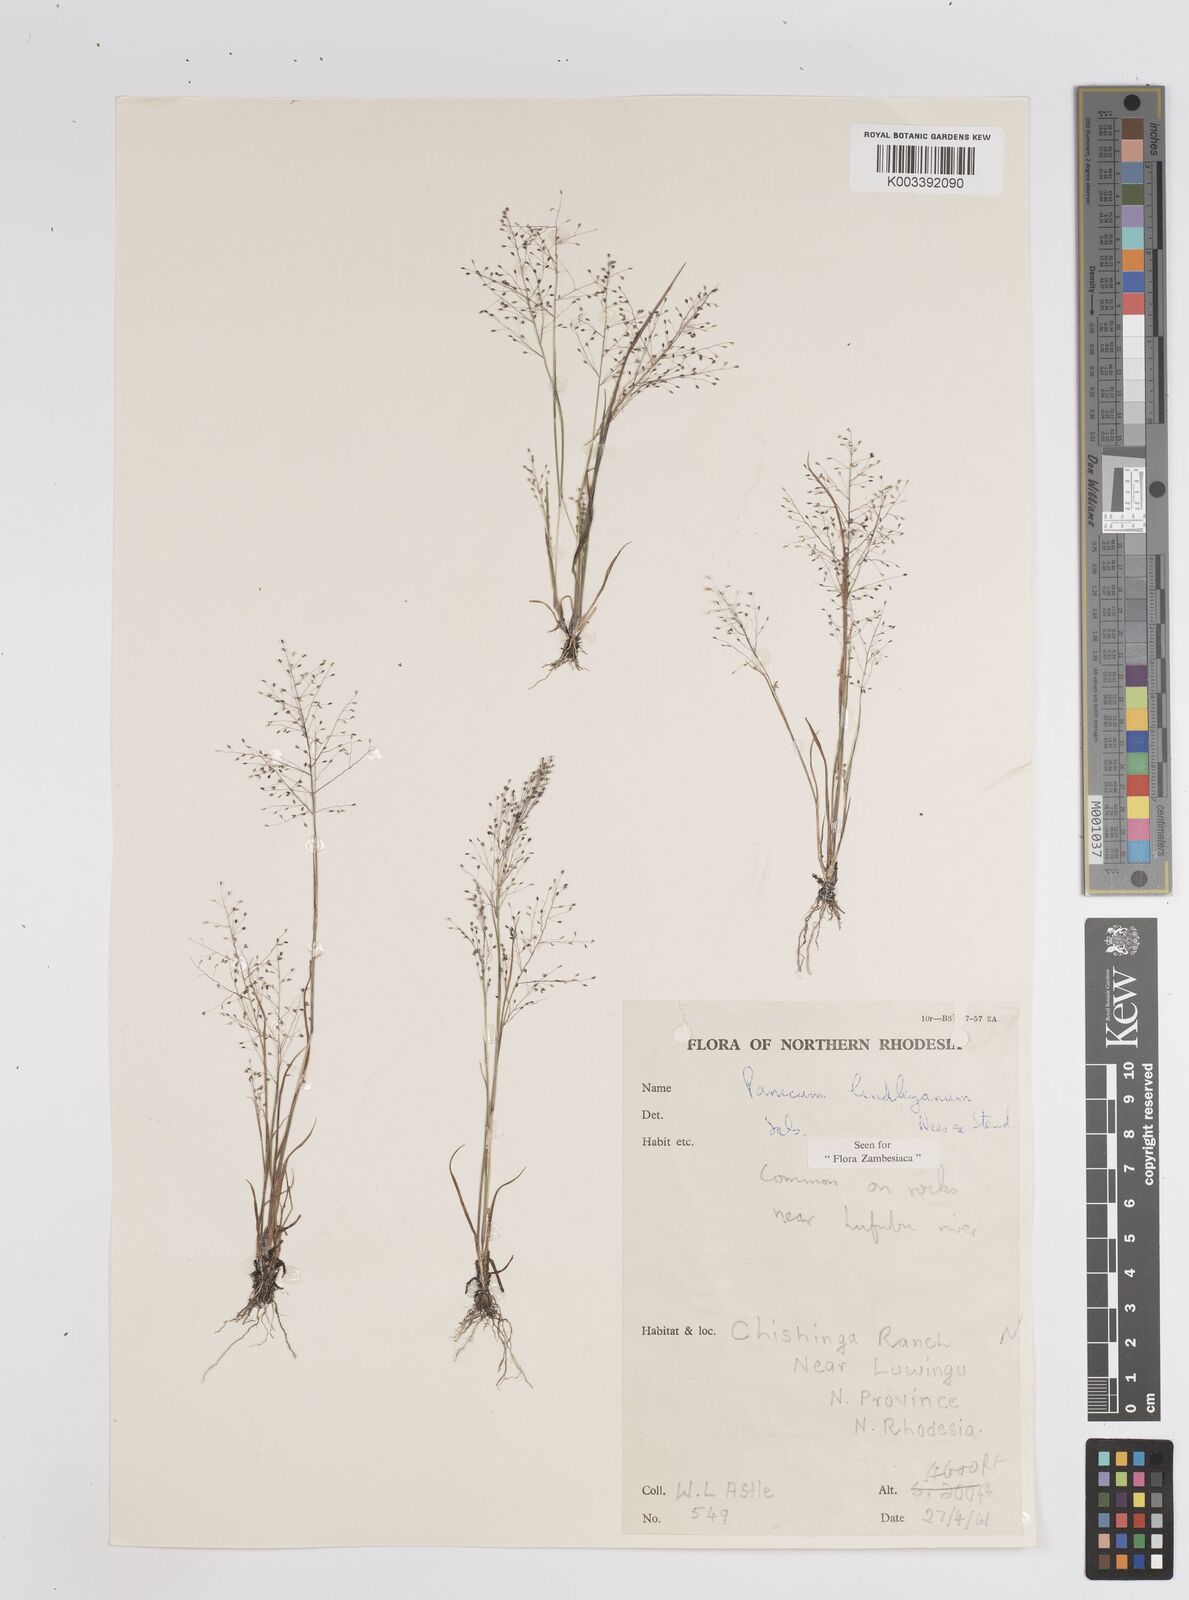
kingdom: Plantae
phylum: Tracheophyta
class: Liliopsida
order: Poales
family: Poaceae
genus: Trichanthecium
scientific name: Trichanthecium tenellum
